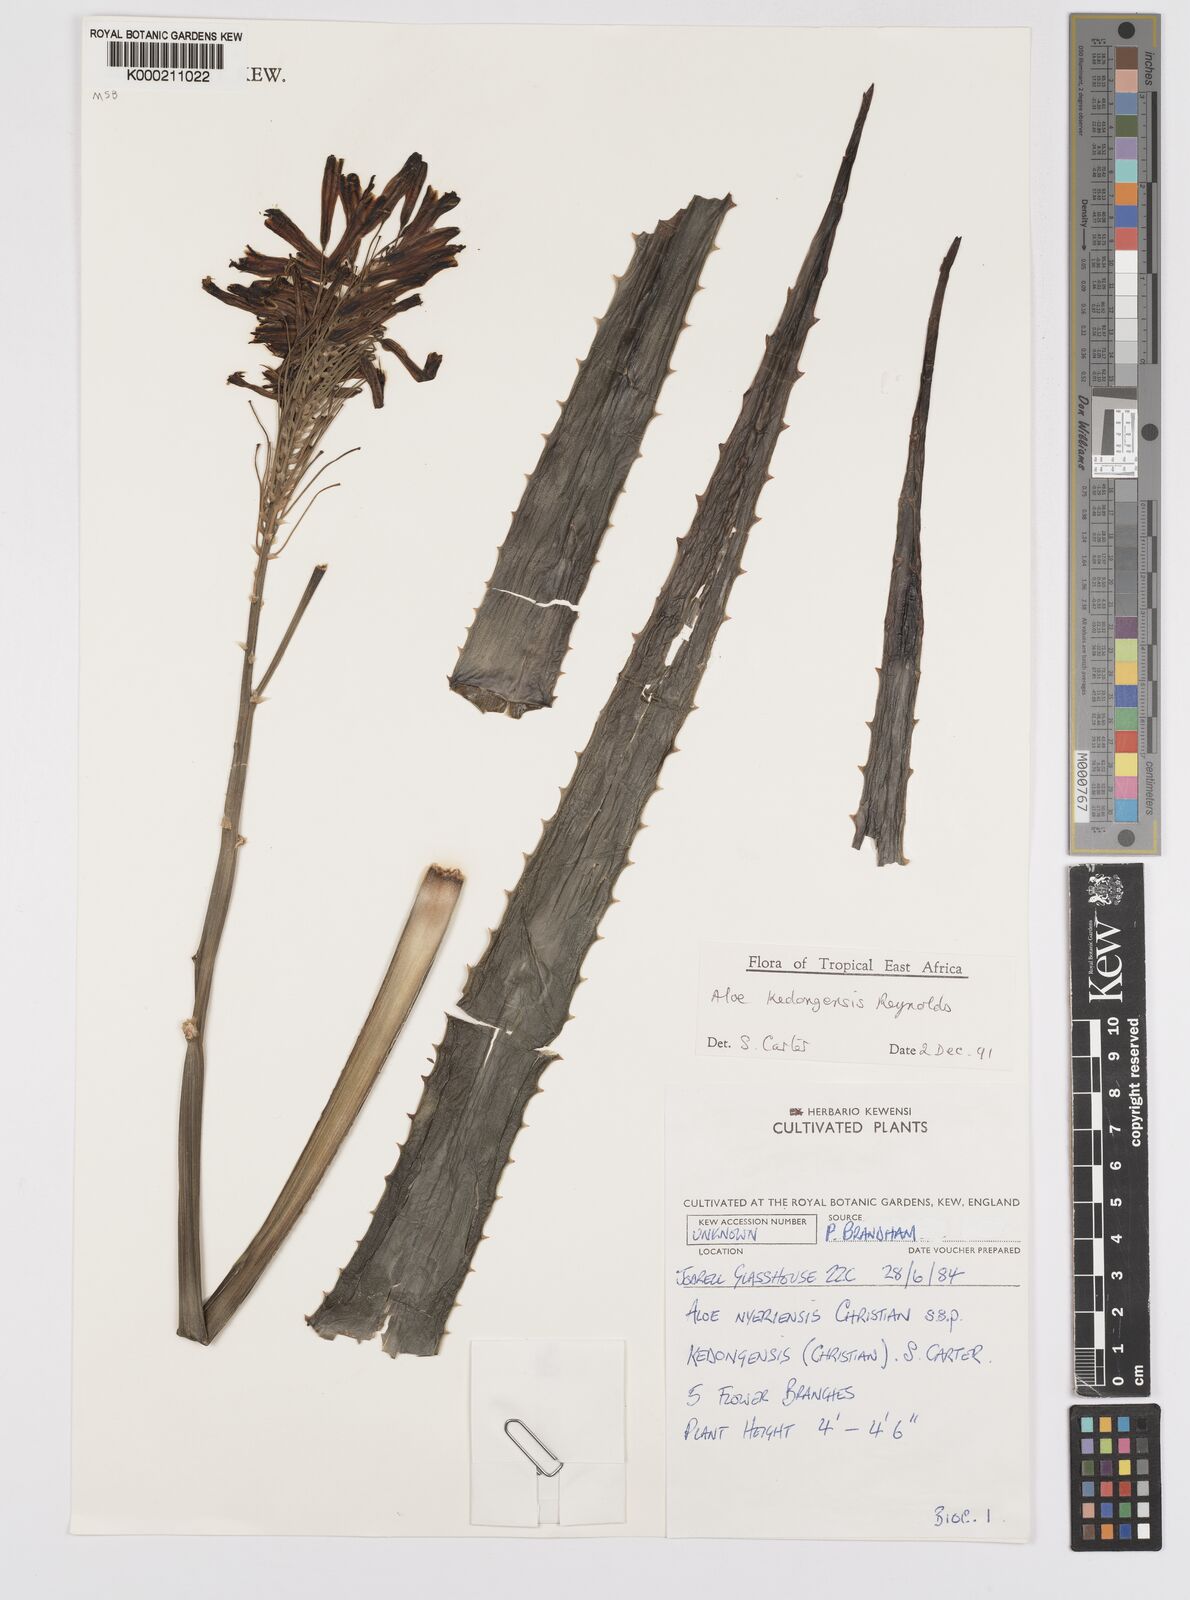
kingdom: Plantae
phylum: Tracheophyta
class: Liliopsida
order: Asparagales
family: Asphodelaceae
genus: Aloe
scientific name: Aloe kedongensis
